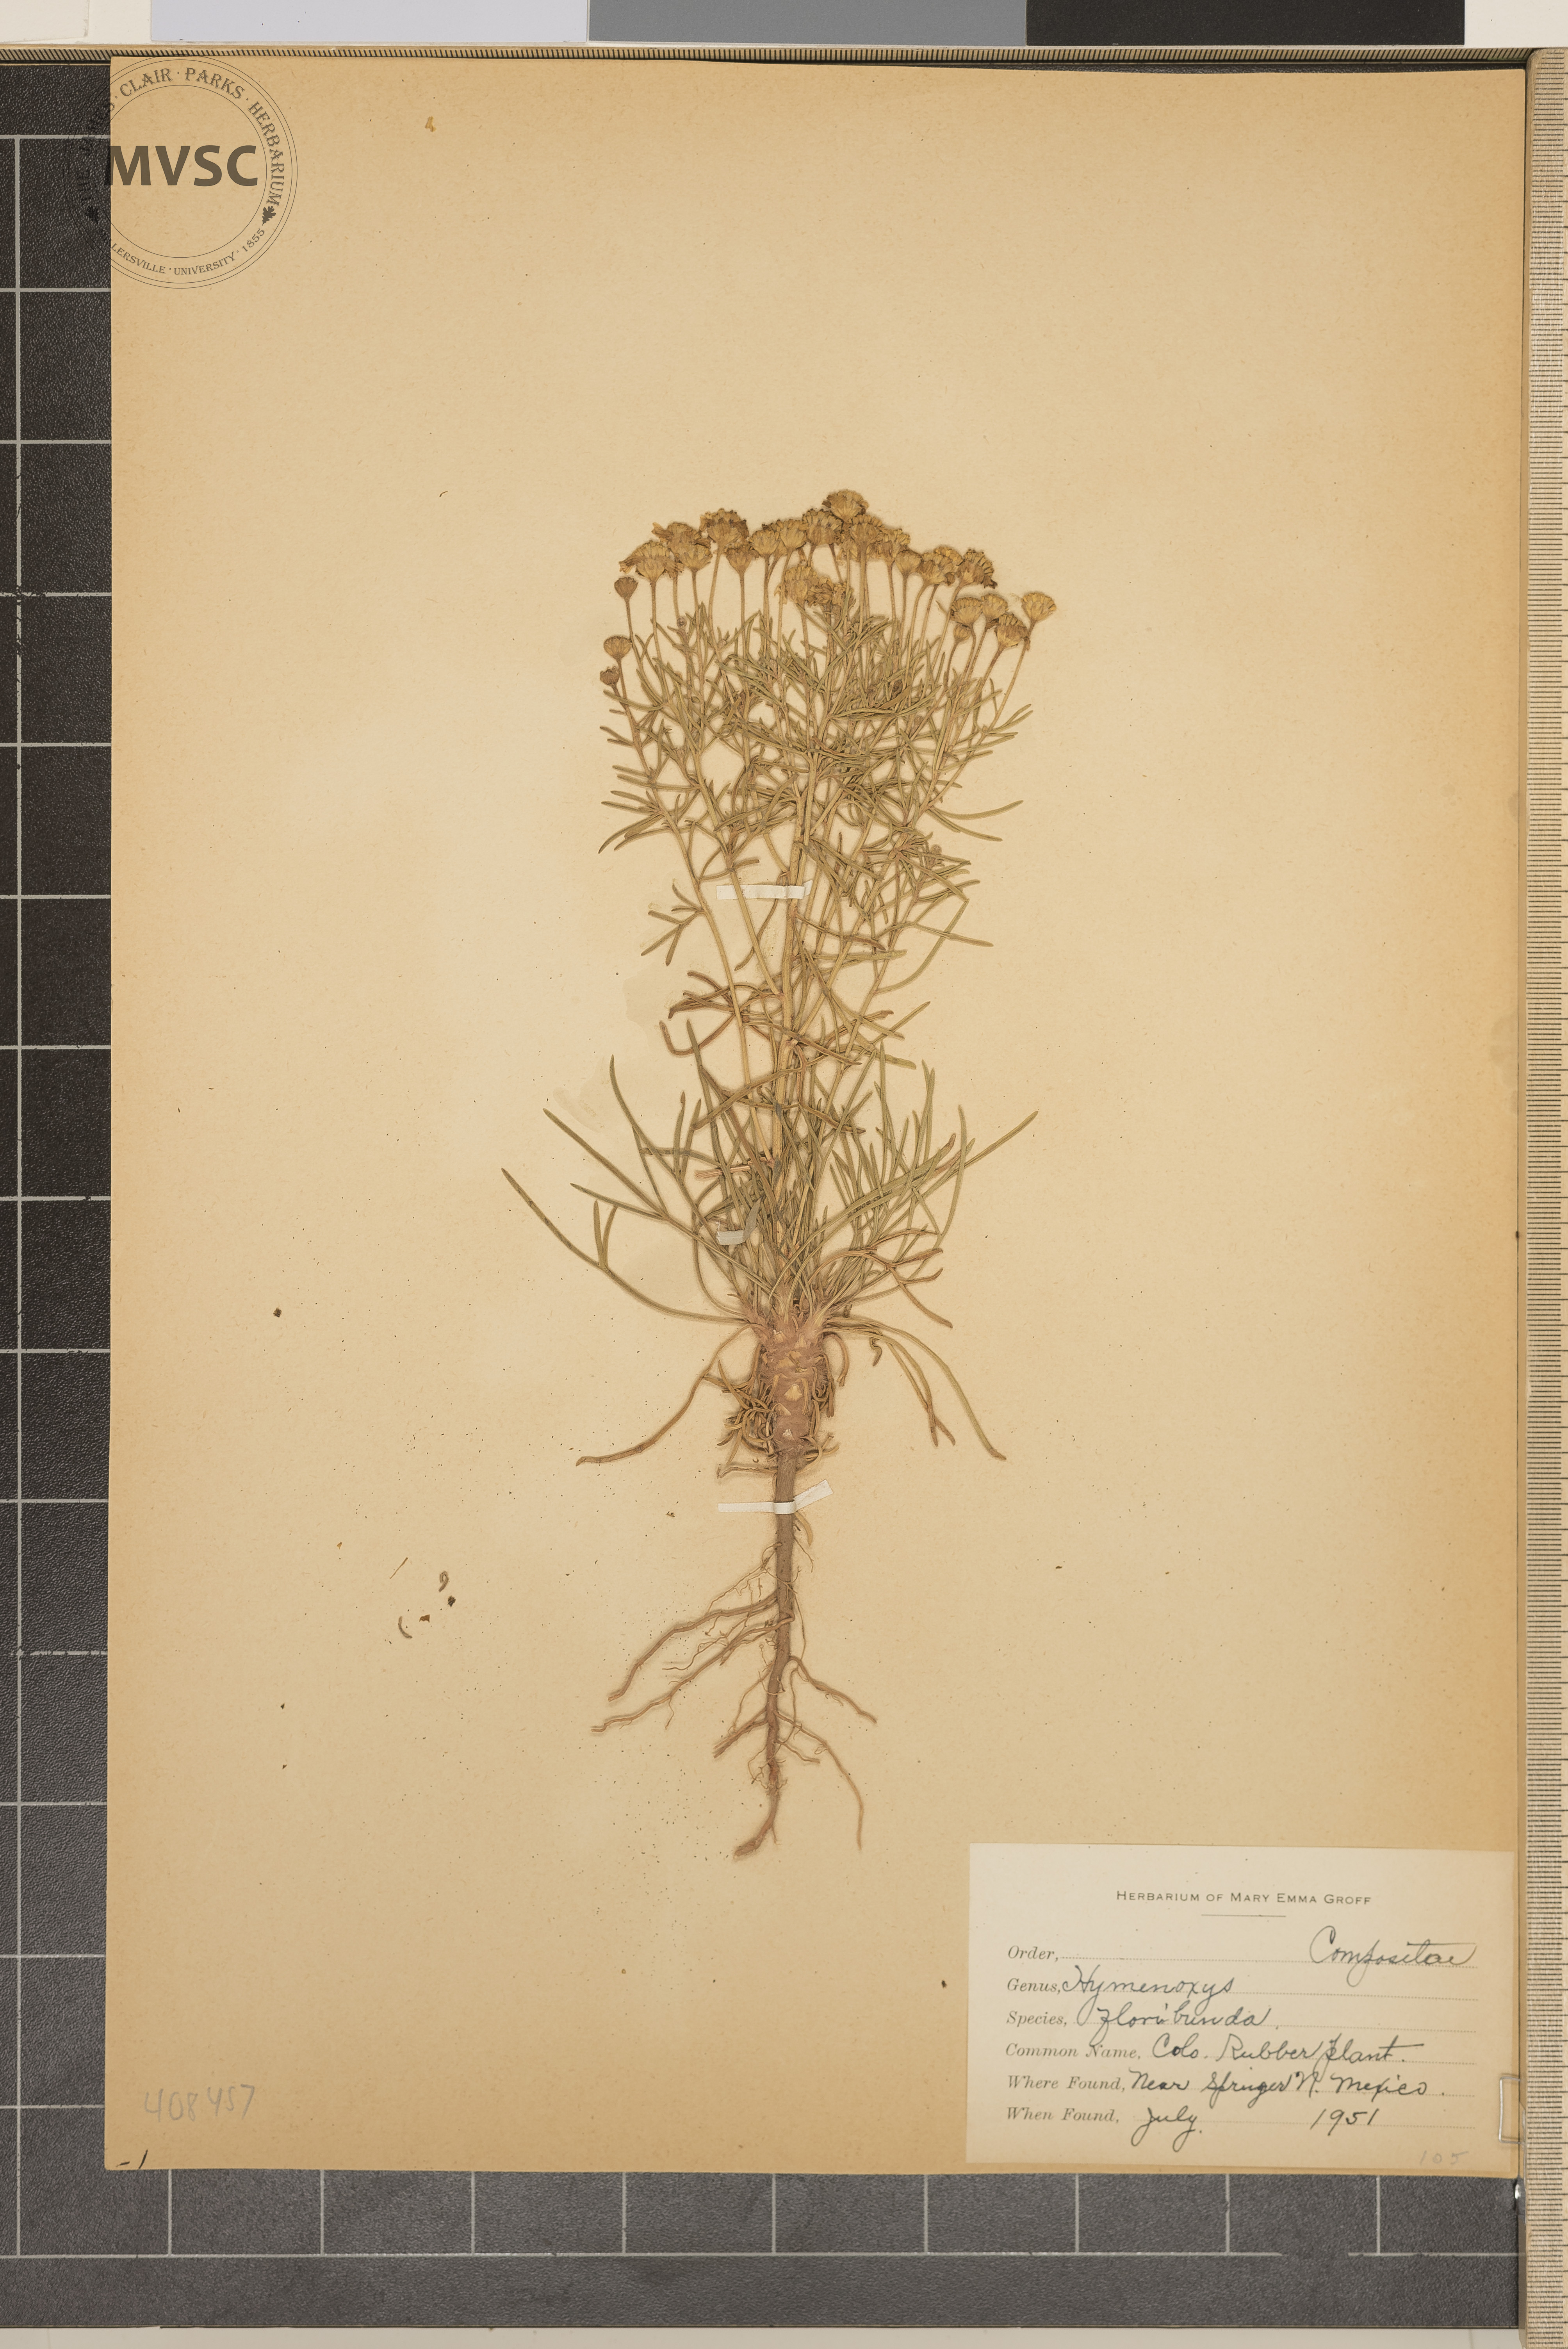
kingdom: Plantae
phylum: Tracheophyta
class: Magnoliopsida
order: Asterales
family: Asteraceae
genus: Hymenoxys
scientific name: Hymenoxys richardsonii
